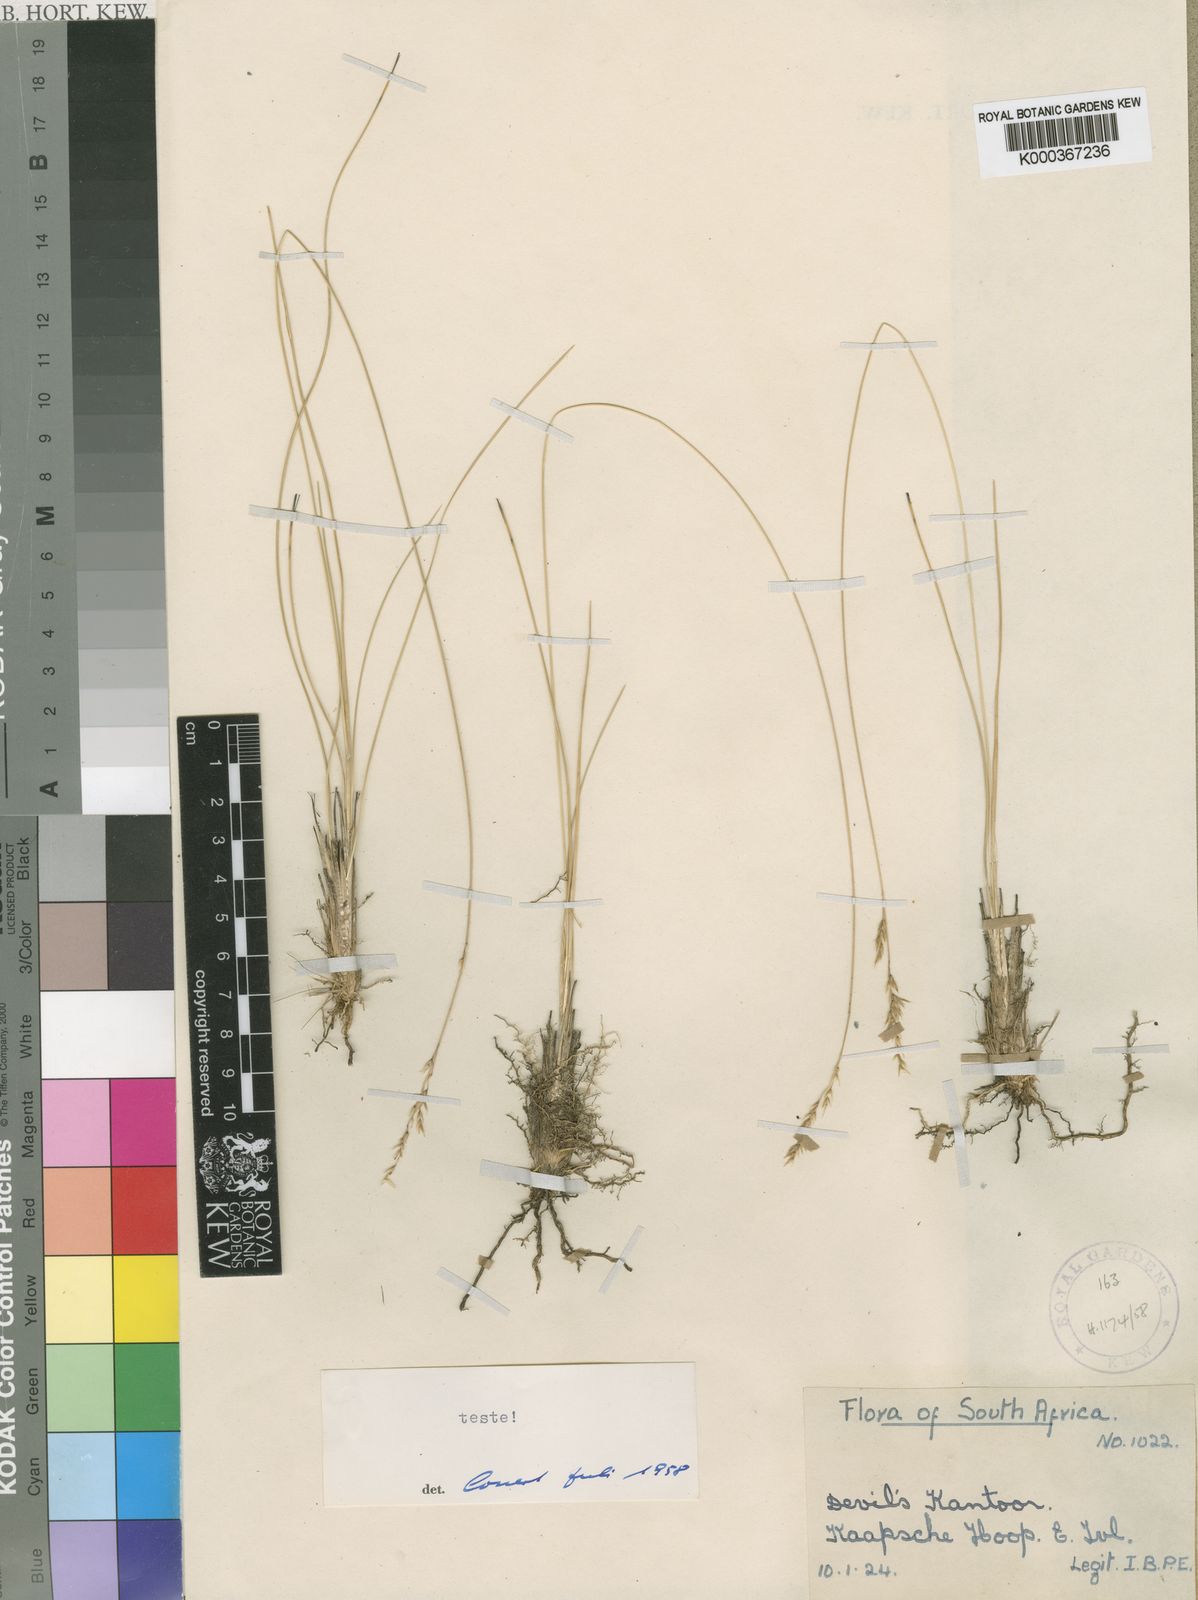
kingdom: Plantae
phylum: Tracheophyta
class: Liliopsida
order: Poales
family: Poaceae
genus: Styppeiochloa
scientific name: Styppeiochloa gynoglossa
